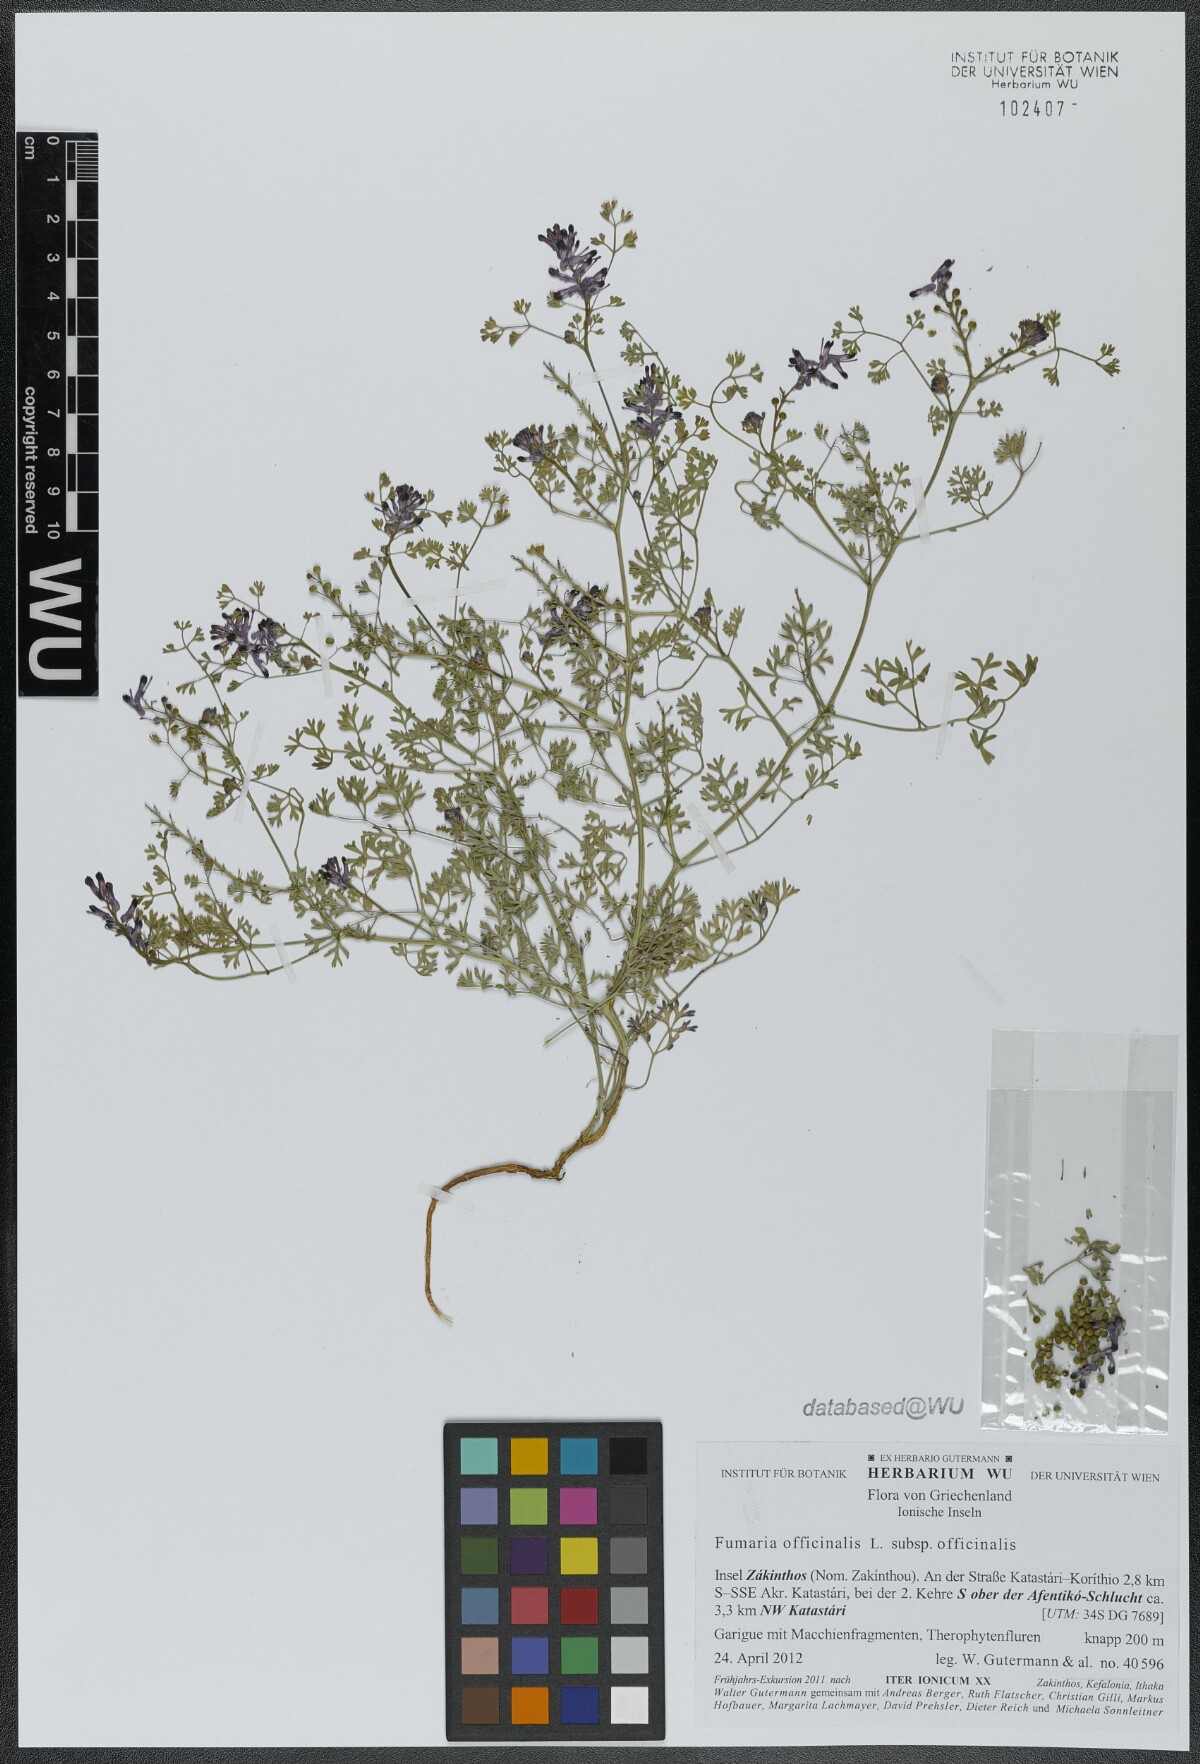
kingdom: Plantae
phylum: Tracheophyta
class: Magnoliopsida
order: Ranunculales
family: Papaveraceae
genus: Fumaria
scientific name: Fumaria officinalis
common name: Common fumitory
